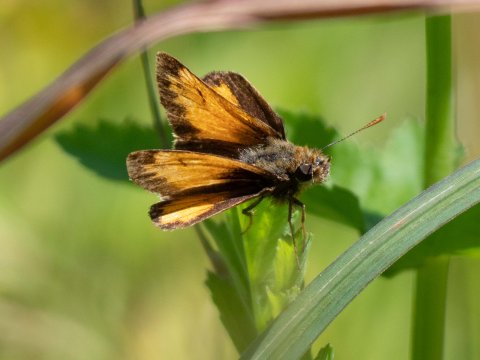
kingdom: Animalia
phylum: Arthropoda
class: Insecta
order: Lepidoptera
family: Hesperiidae
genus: Lon
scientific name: Lon hobomok
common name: Hobomok Skipper
